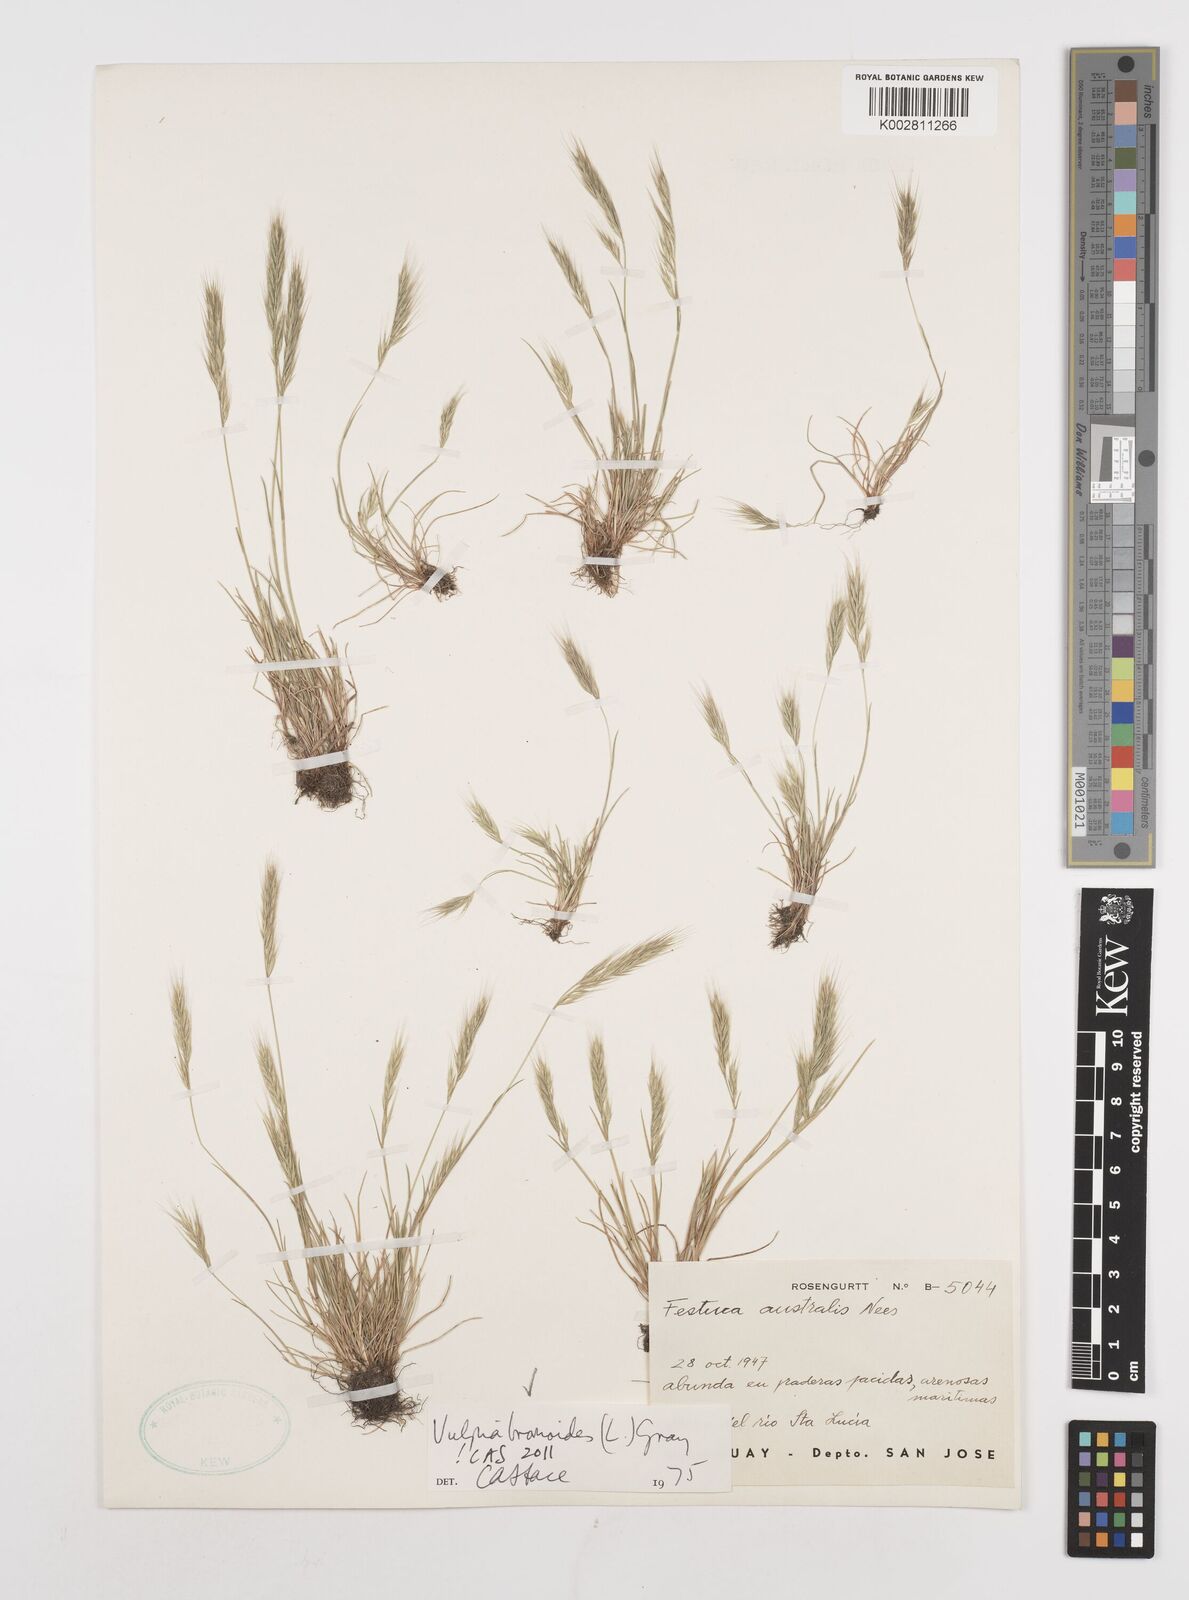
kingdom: Plantae
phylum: Tracheophyta
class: Liliopsida
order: Poales
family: Poaceae
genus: Festuca
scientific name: Festuca bromoides
